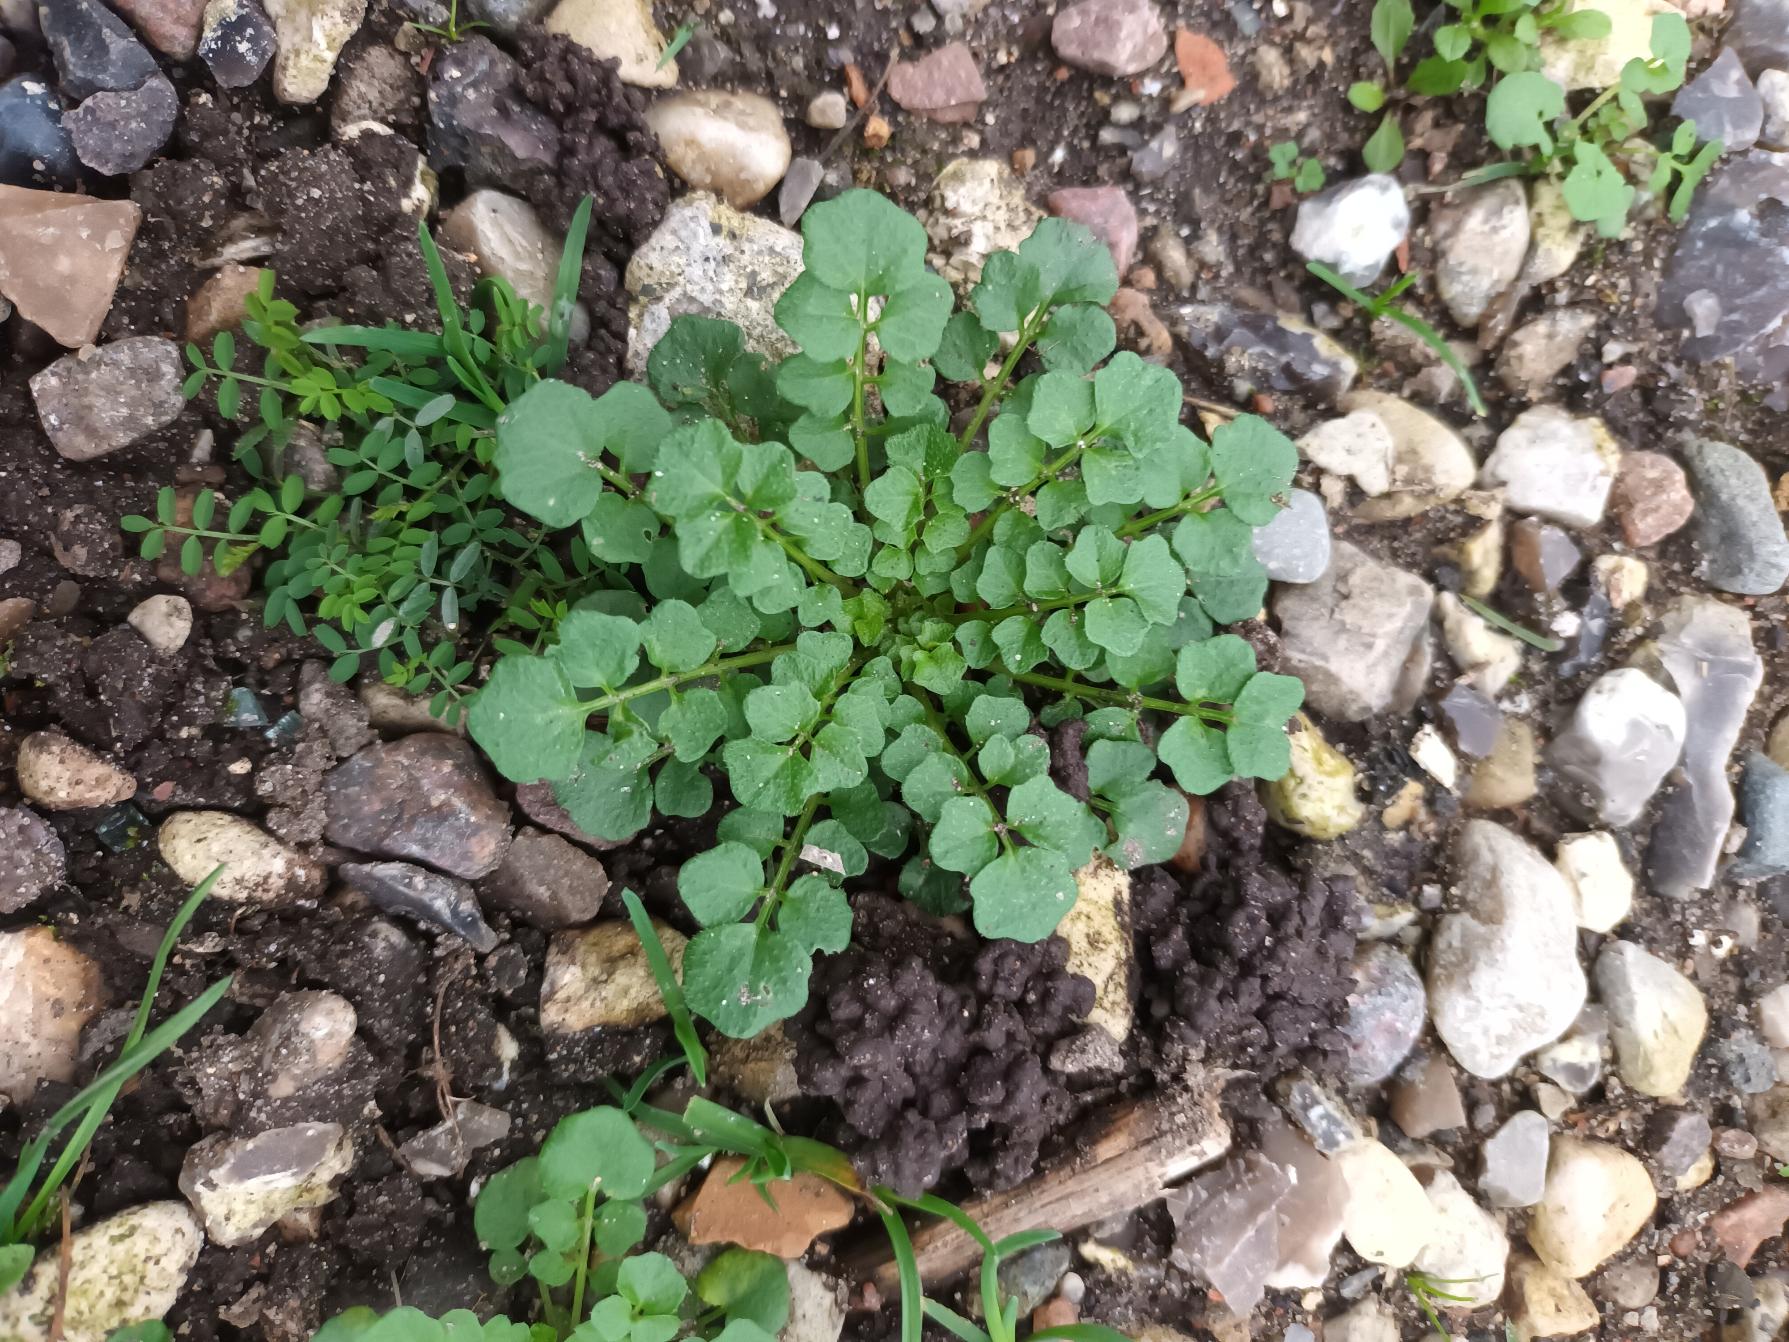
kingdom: Plantae
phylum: Tracheophyta
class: Magnoliopsida
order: Brassicales
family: Brassicaceae
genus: Cardamine
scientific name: Cardamine hirsuta
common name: Roset-springklap
